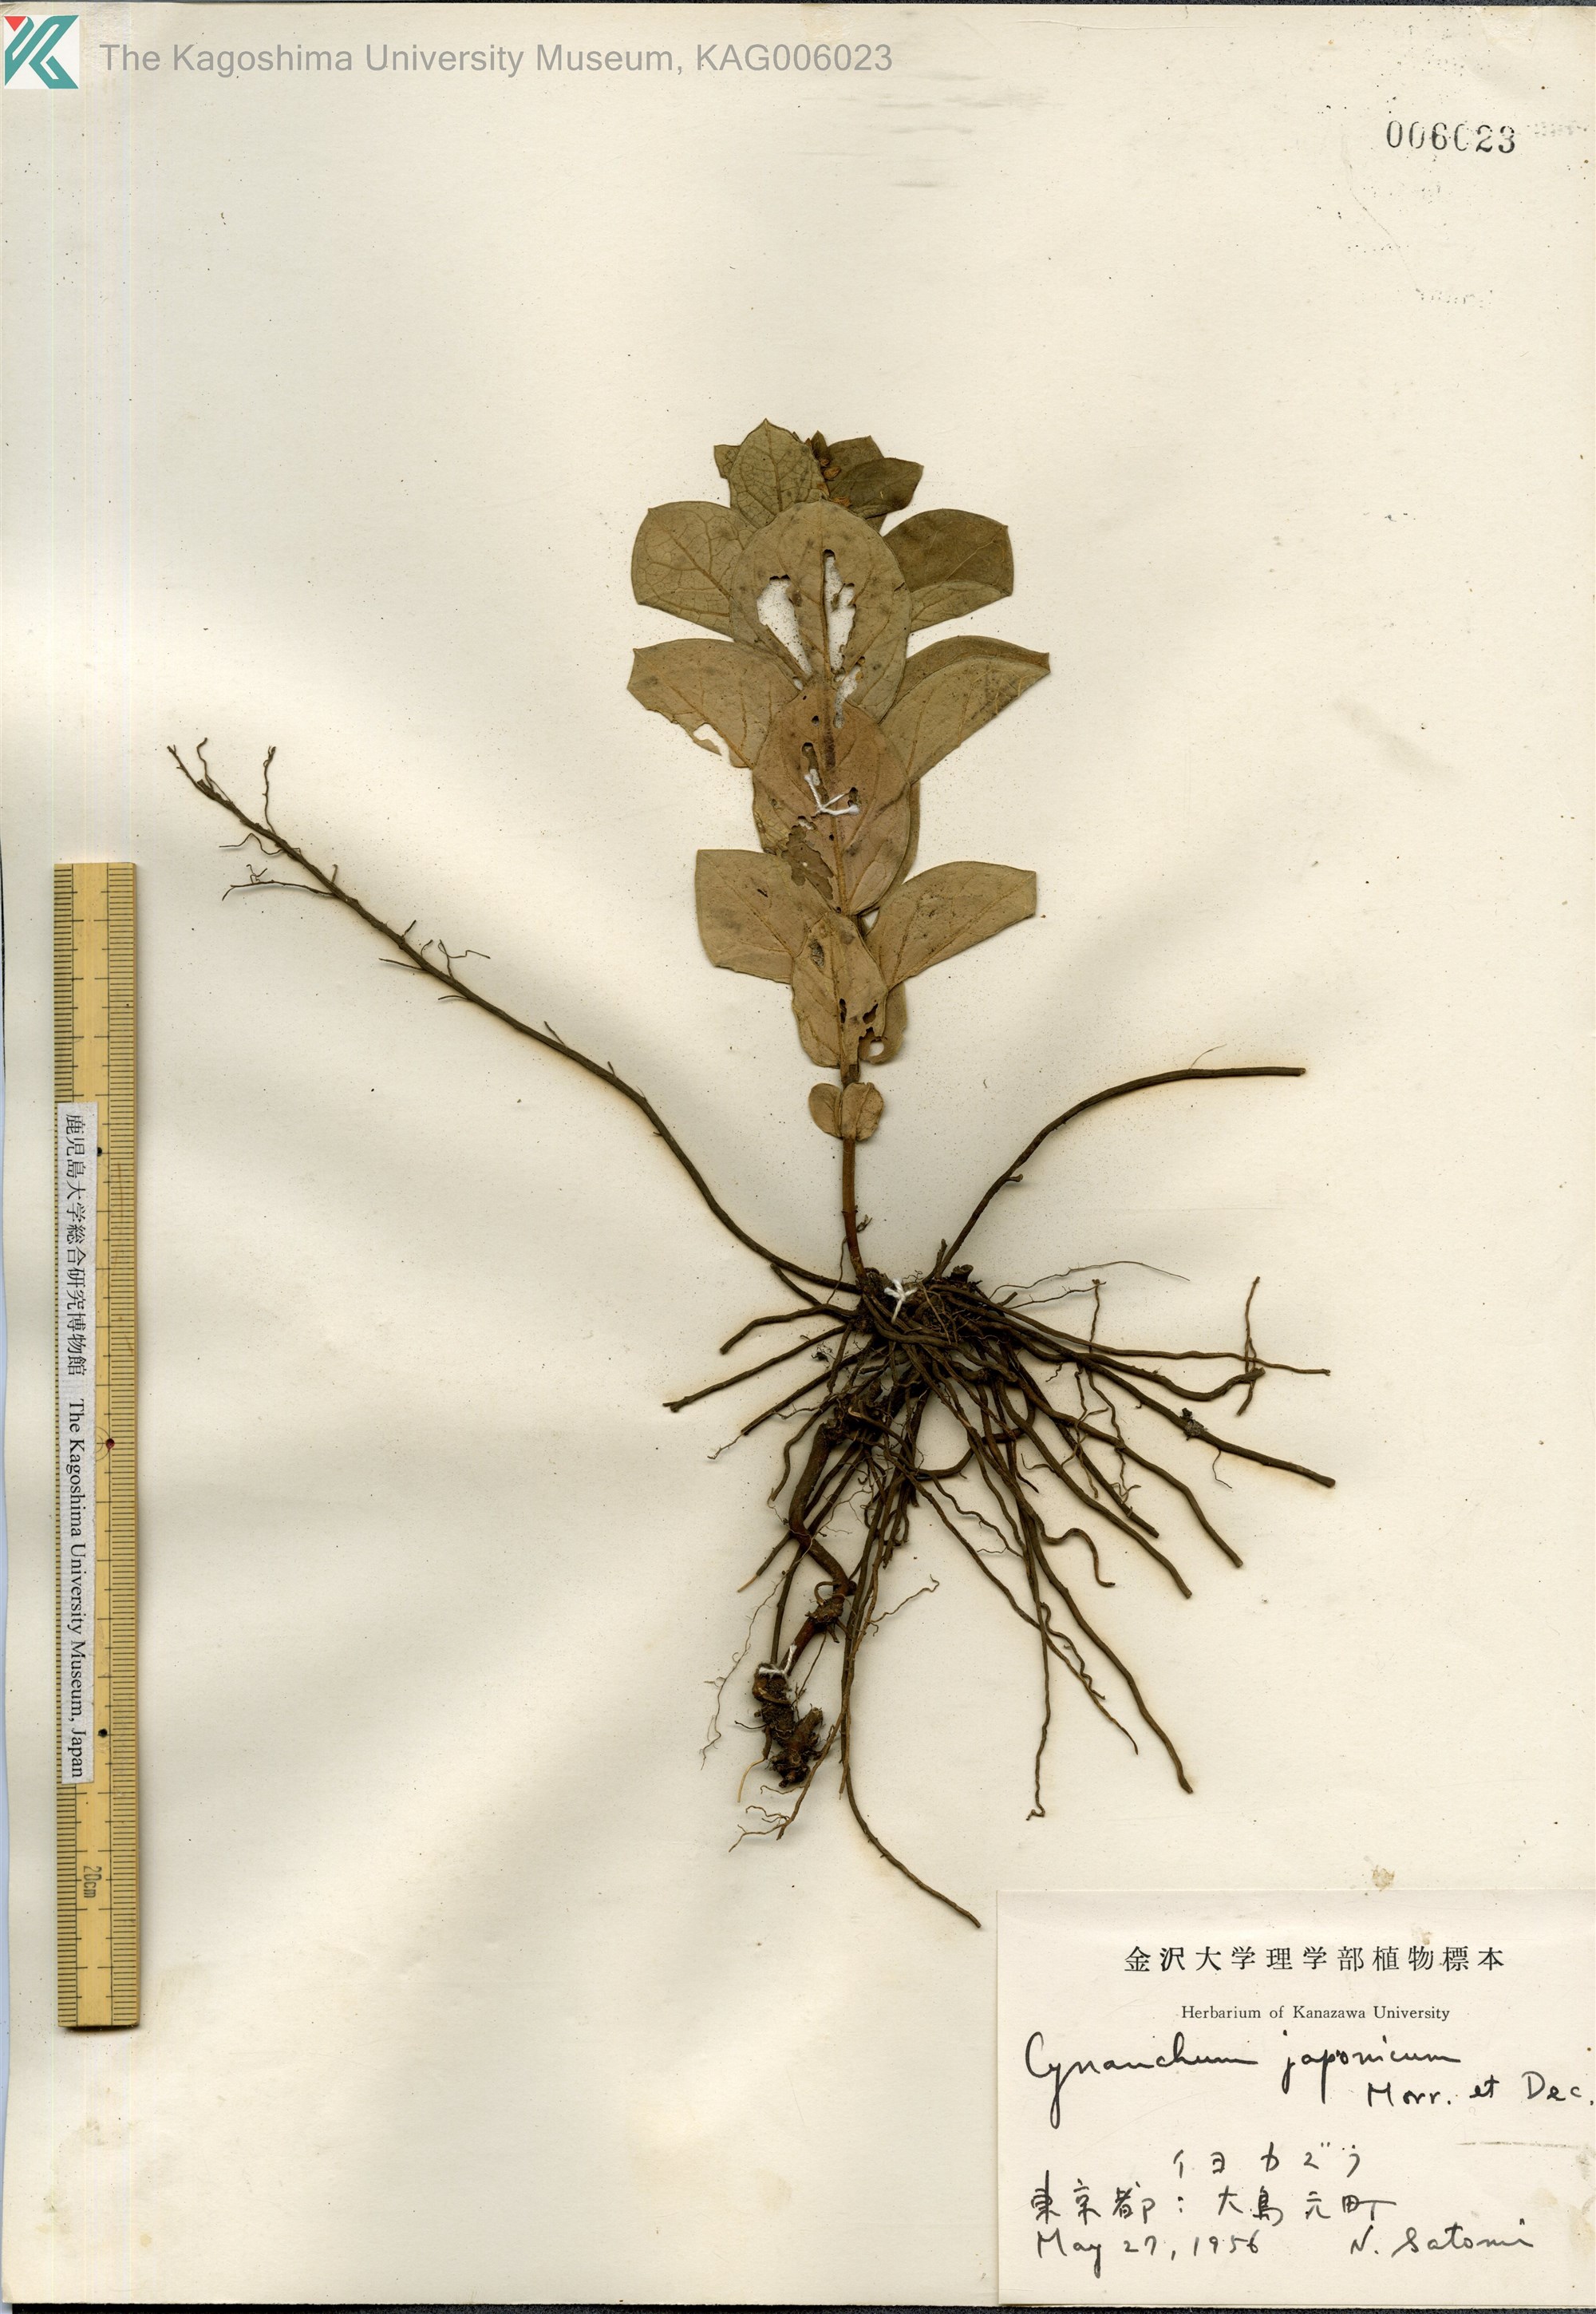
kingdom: Plantae
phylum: Tracheophyta
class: Magnoliopsida
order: Gentianales
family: Apocynaceae
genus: Vincetoxicum
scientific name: Vincetoxicum japonicum
